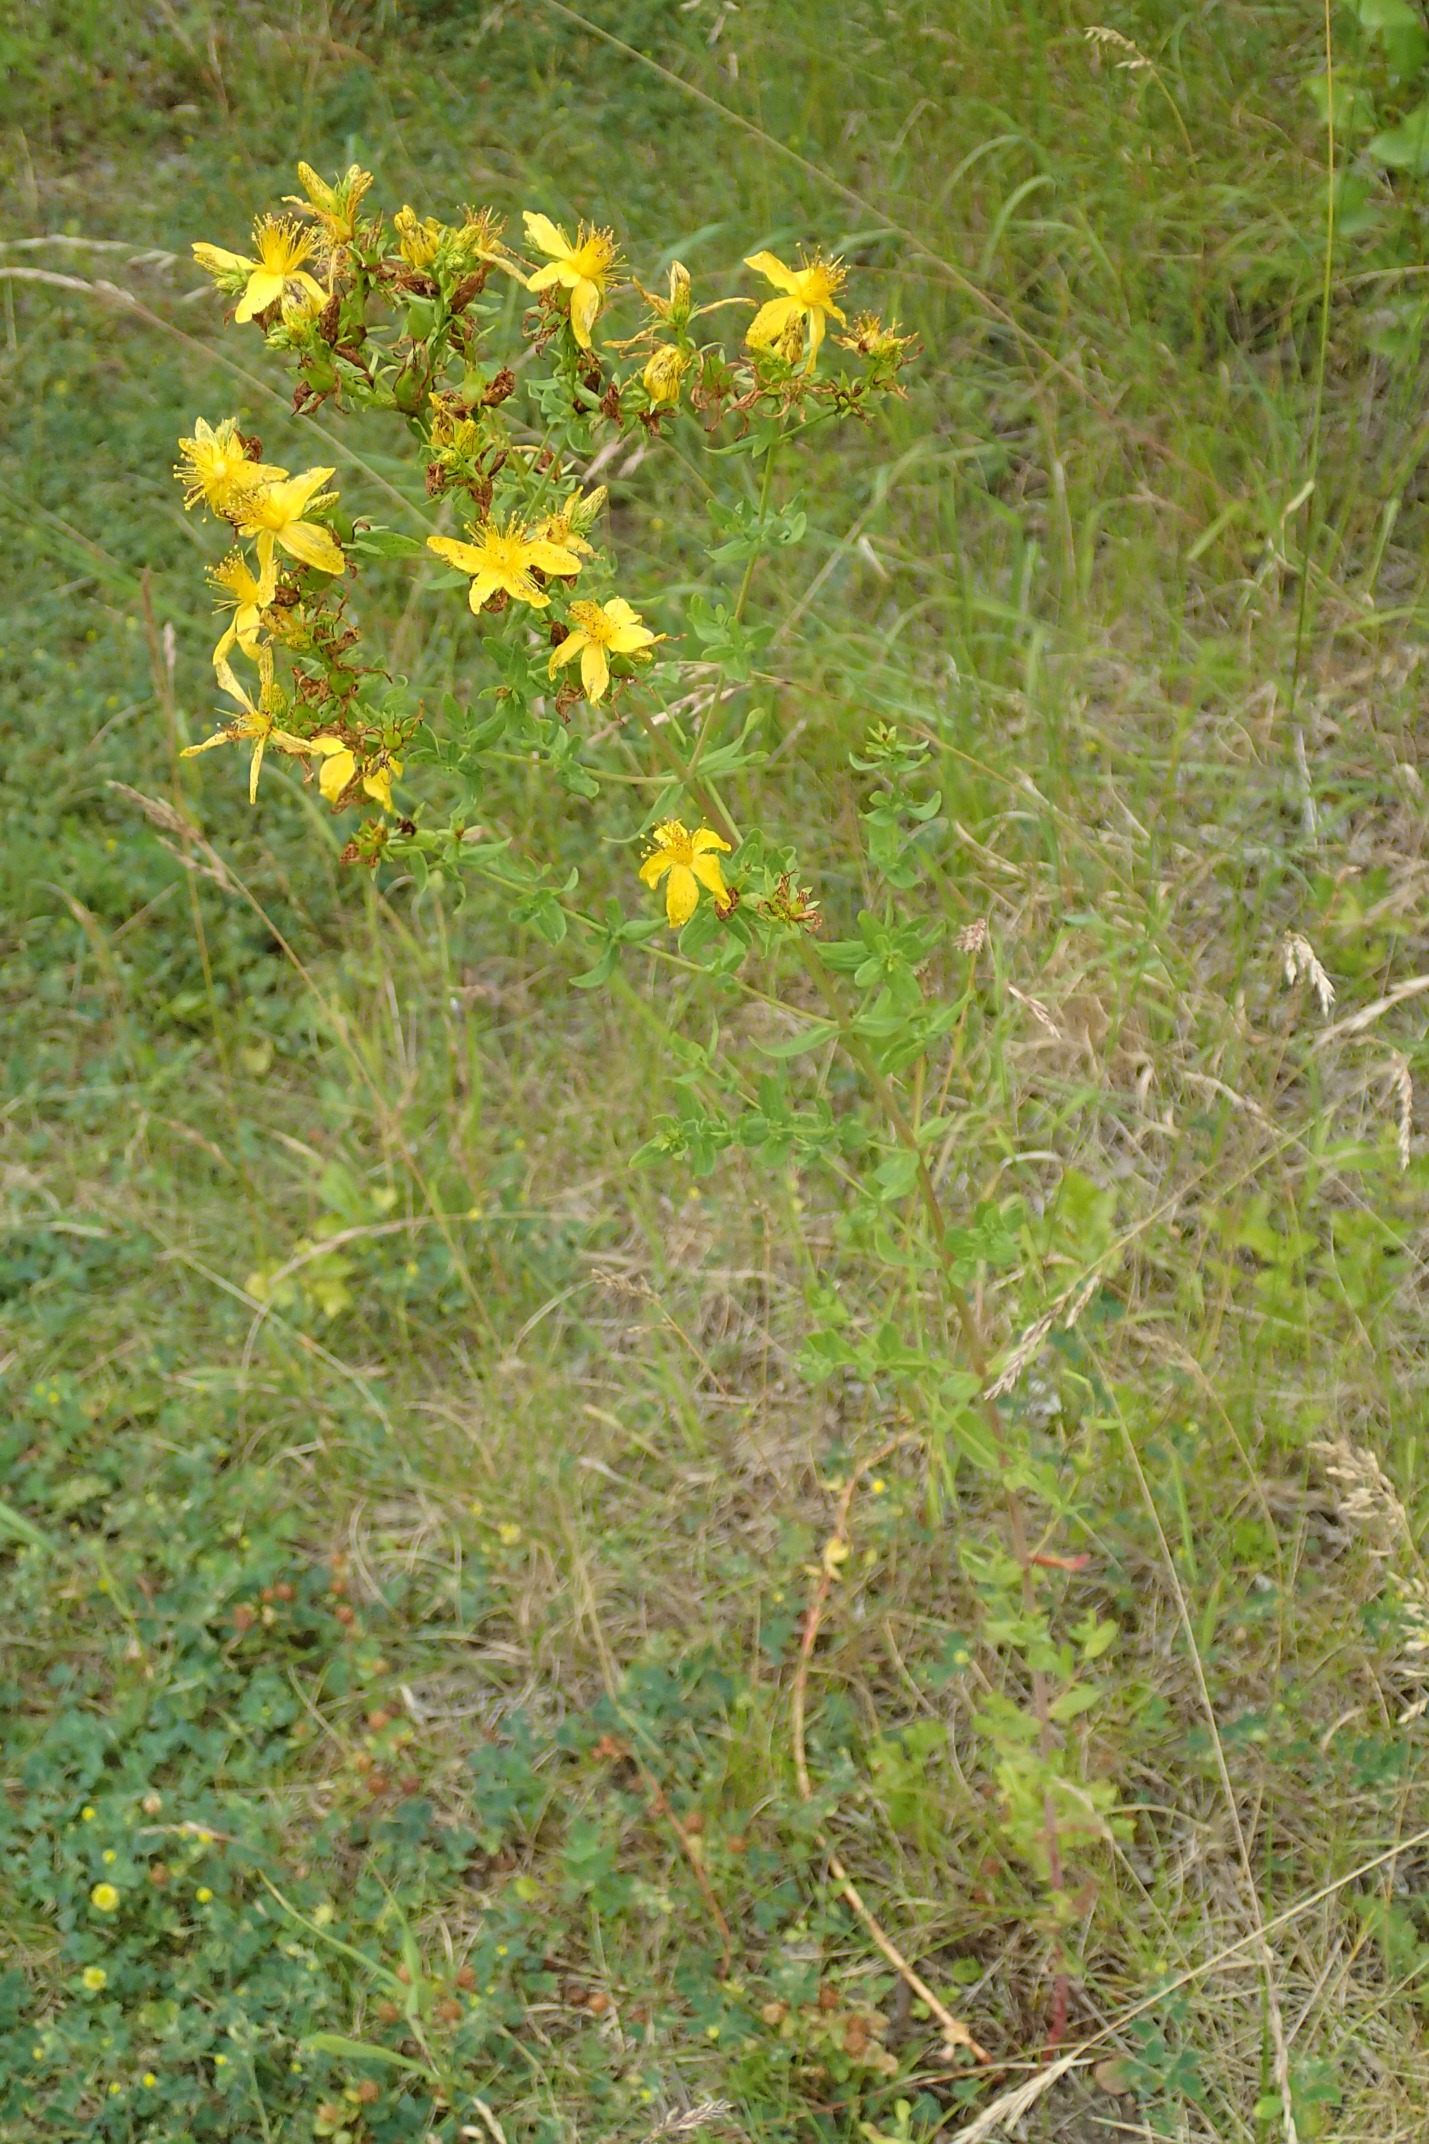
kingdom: Plantae
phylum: Tracheophyta
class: Magnoliopsida
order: Malpighiales
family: Hypericaceae
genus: Hypericum
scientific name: Hypericum perforatum
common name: Prikbladet perikon
